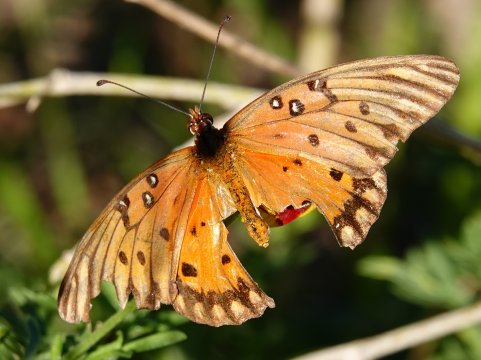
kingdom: Animalia
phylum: Arthropoda
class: Insecta
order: Lepidoptera
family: Nymphalidae
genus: Dione
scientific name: Dione vanillae
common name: Gulf Fritillary
